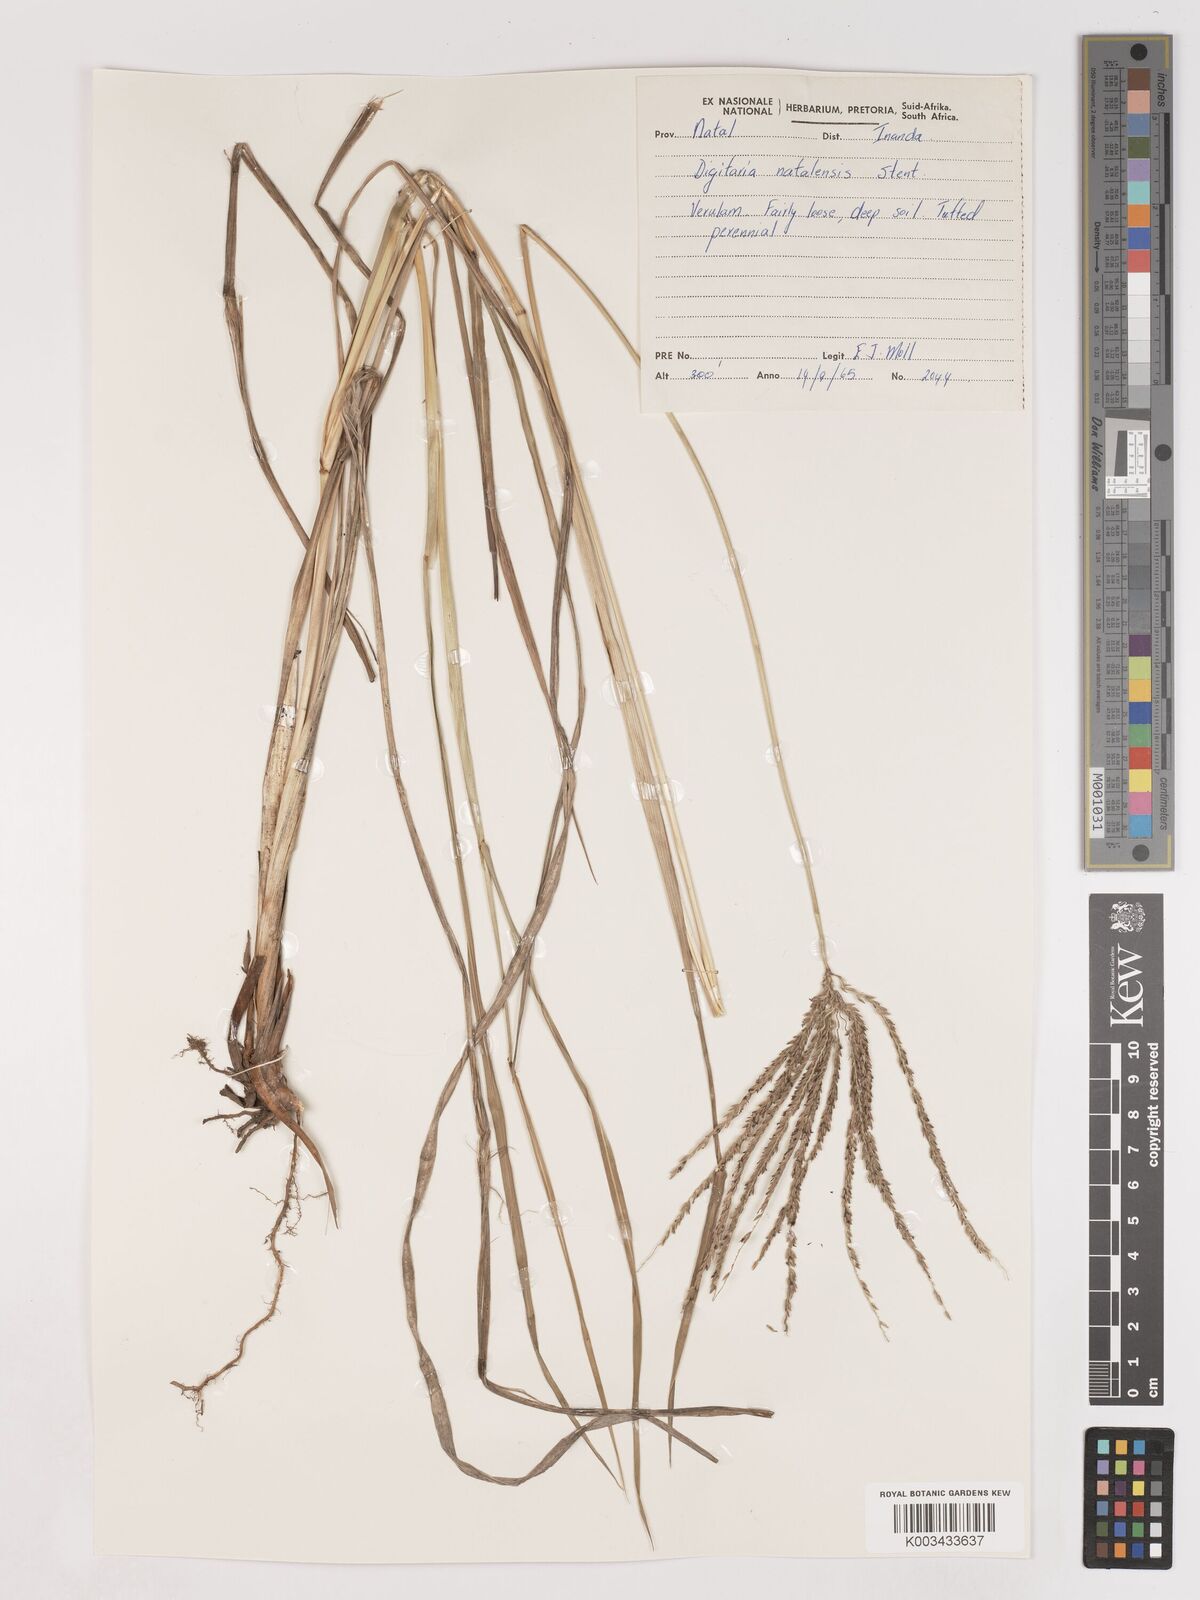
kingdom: Plantae
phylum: Tracheophyta
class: Liliopsida
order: Poales
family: Poaceae
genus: Digitaria
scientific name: Digitaria natalensis
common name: Coast finger grass
